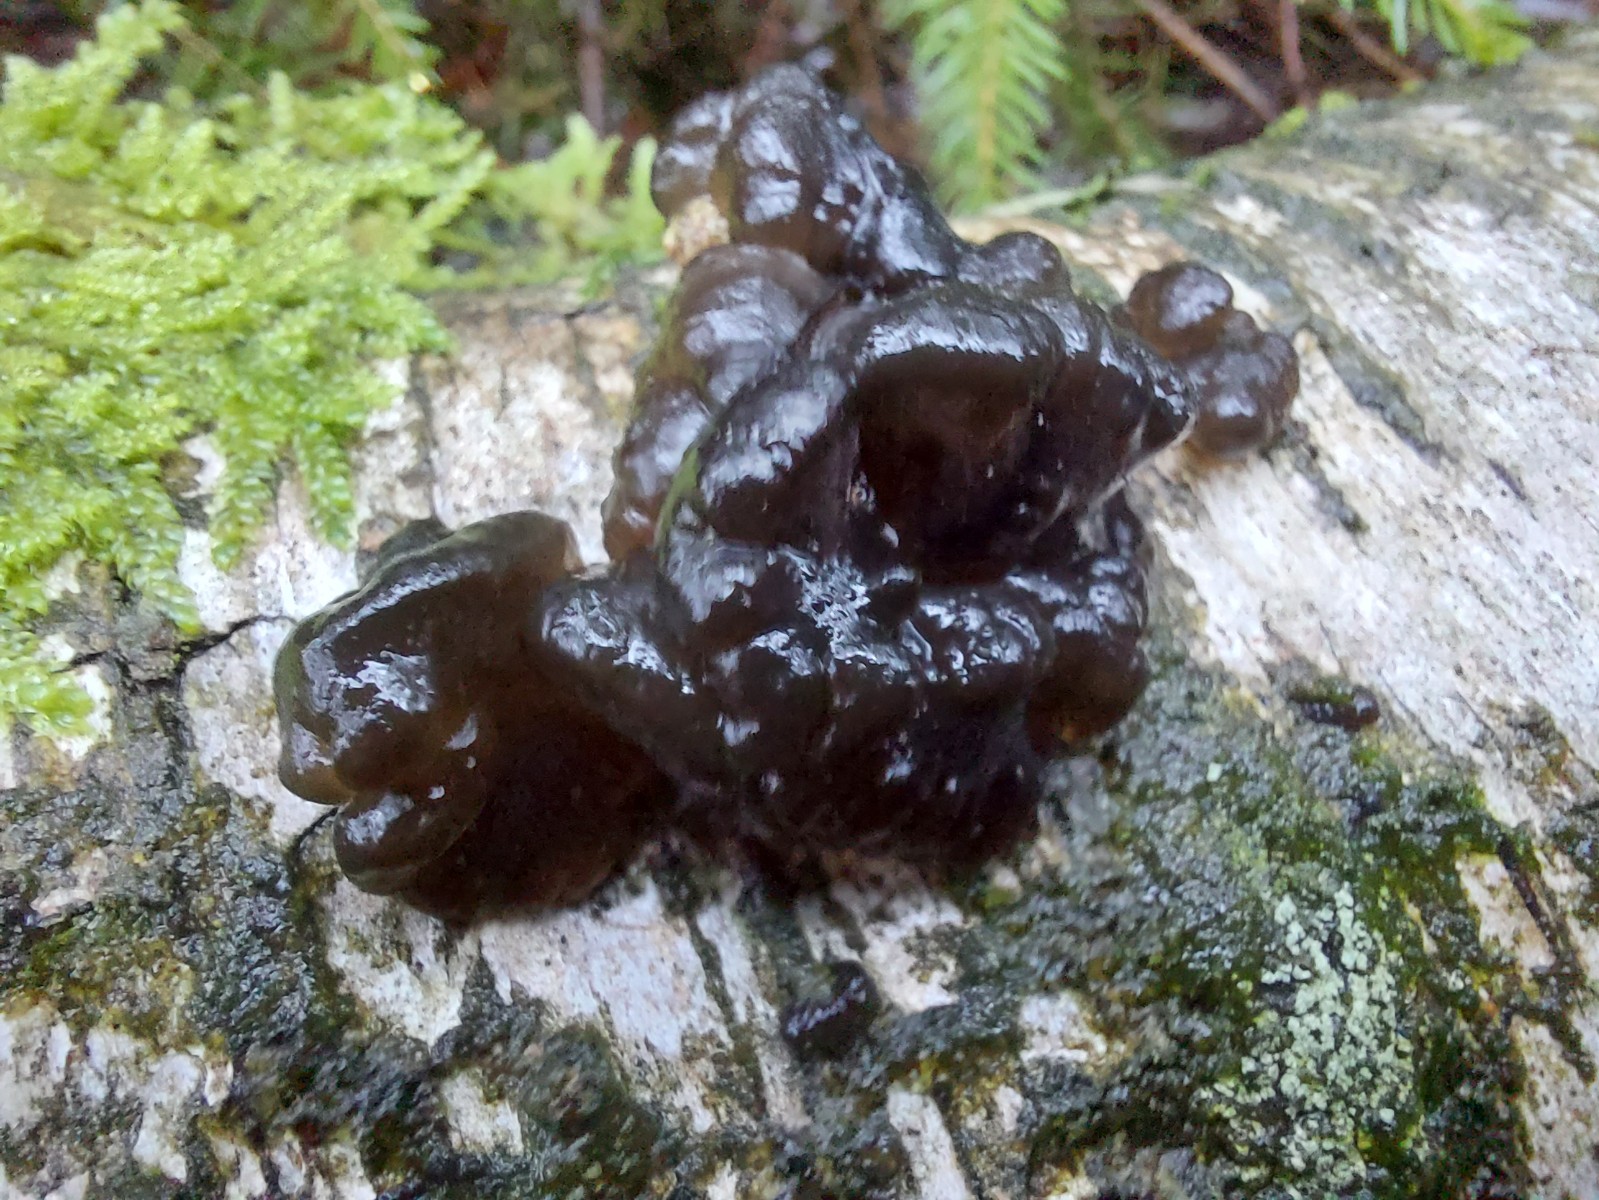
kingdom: Fungi
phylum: Basidiomycota
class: Agaricomycetes
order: Auriculariales
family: Auriculariaceae
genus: Exidia
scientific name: Exidia nigricans
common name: almindelig bævretop
